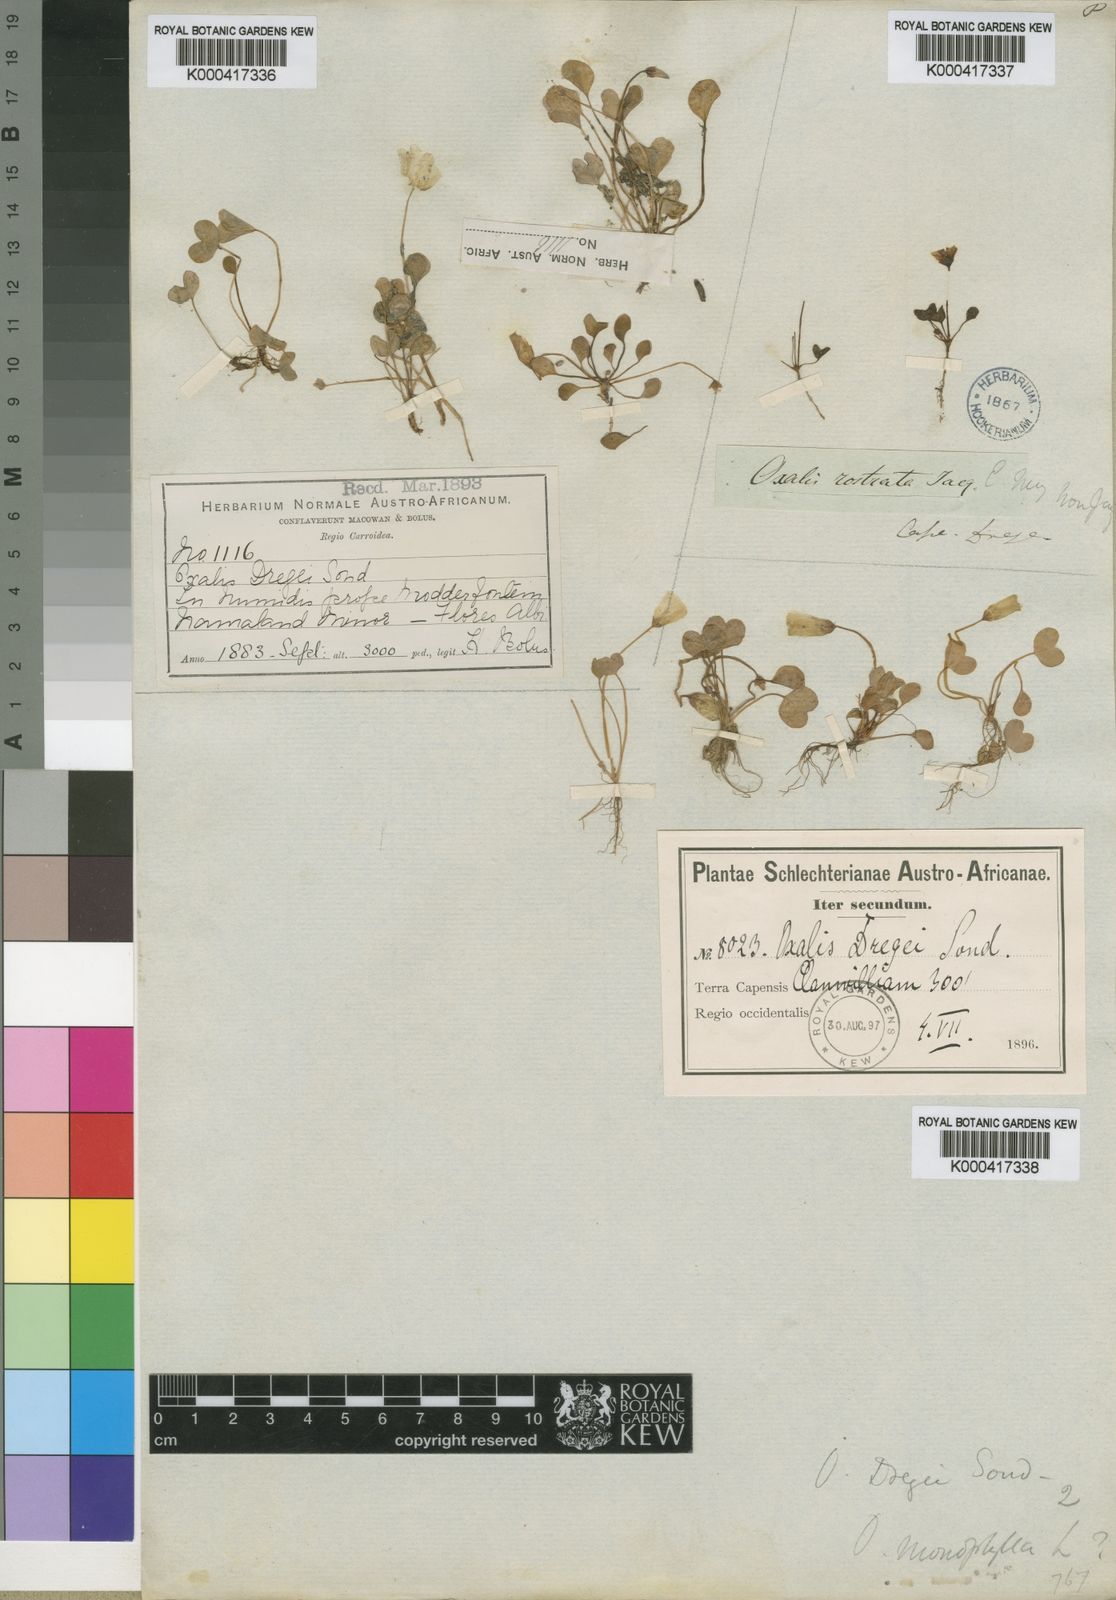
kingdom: Plantae
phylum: Tracheophyta
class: Magnoliopsida
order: Oxalidales
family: Oxalidaceae
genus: Oxalis
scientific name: Oxalis dregei
